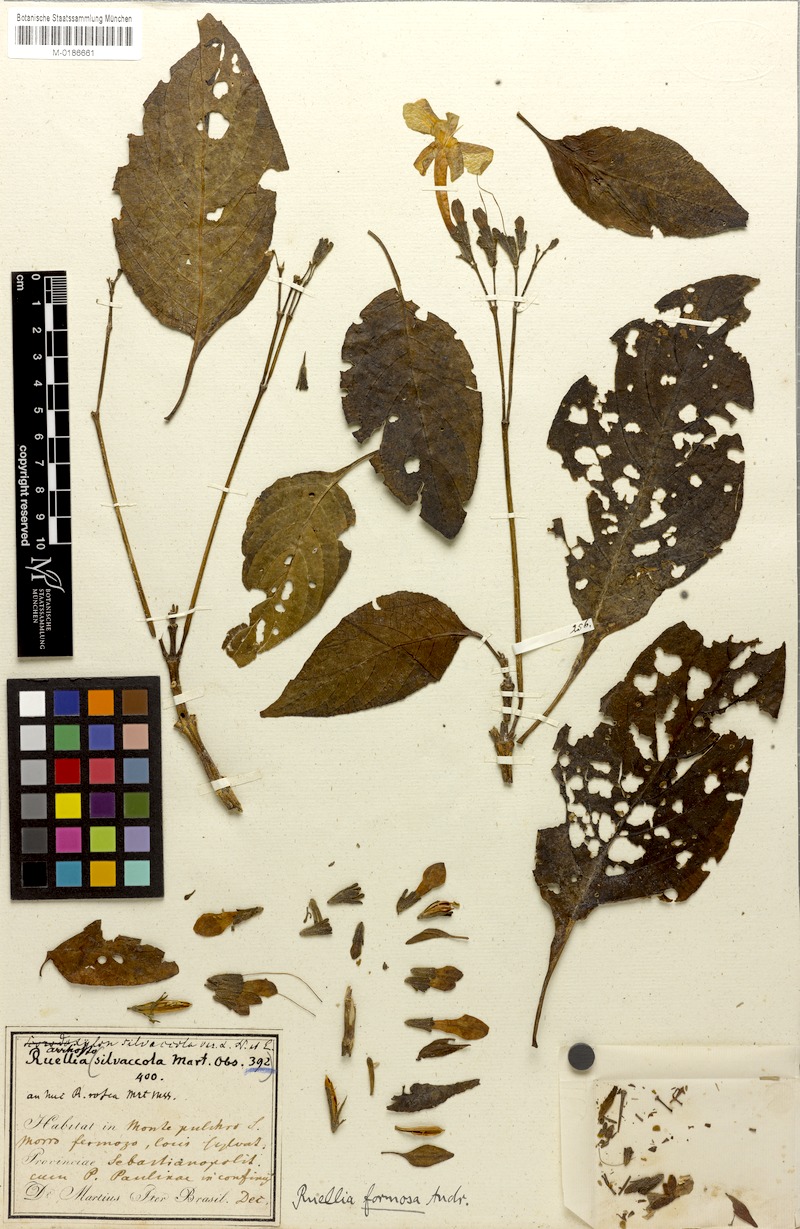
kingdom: Plantae
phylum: Tracheophyta
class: Magnoliopsida
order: Lamiales
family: Acanthaceae
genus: Ruellia
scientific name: Ruellia elegans
